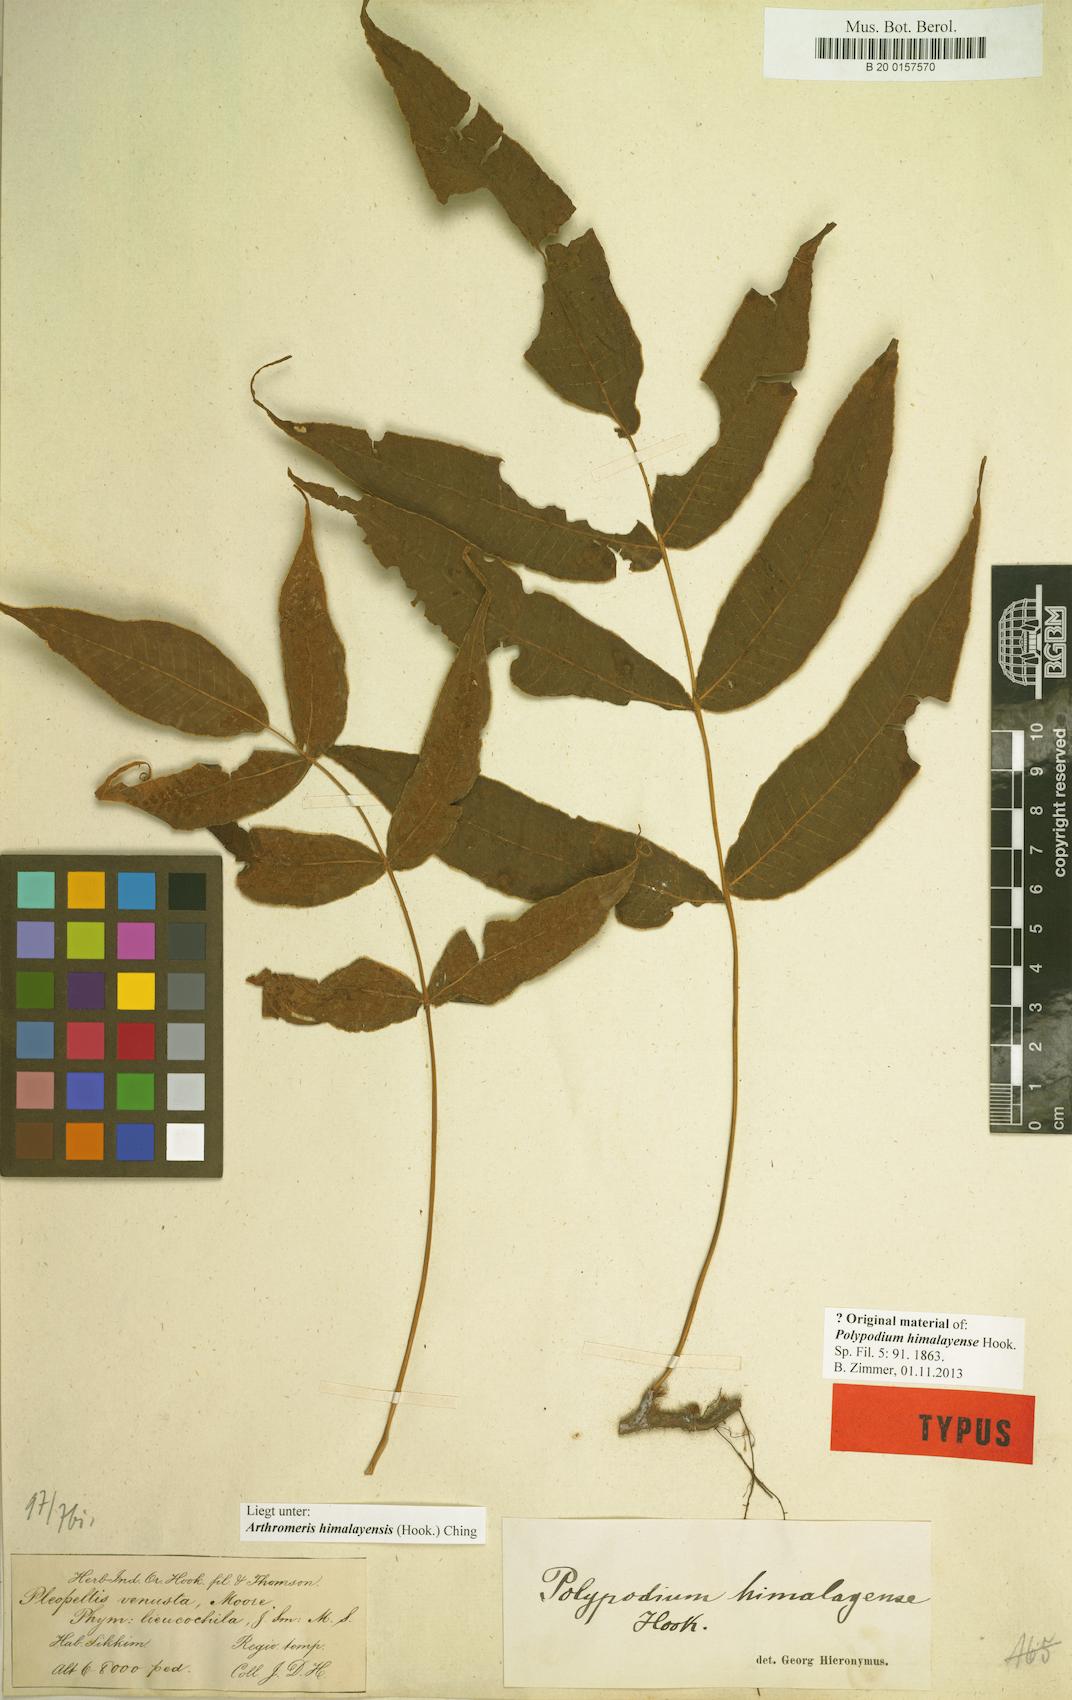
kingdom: Plantae
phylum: Tracheophyta
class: Polypodiopsida
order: Polypodiales
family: Polypodiaceae
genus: Selliguea
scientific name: Selliguea tomentosa
